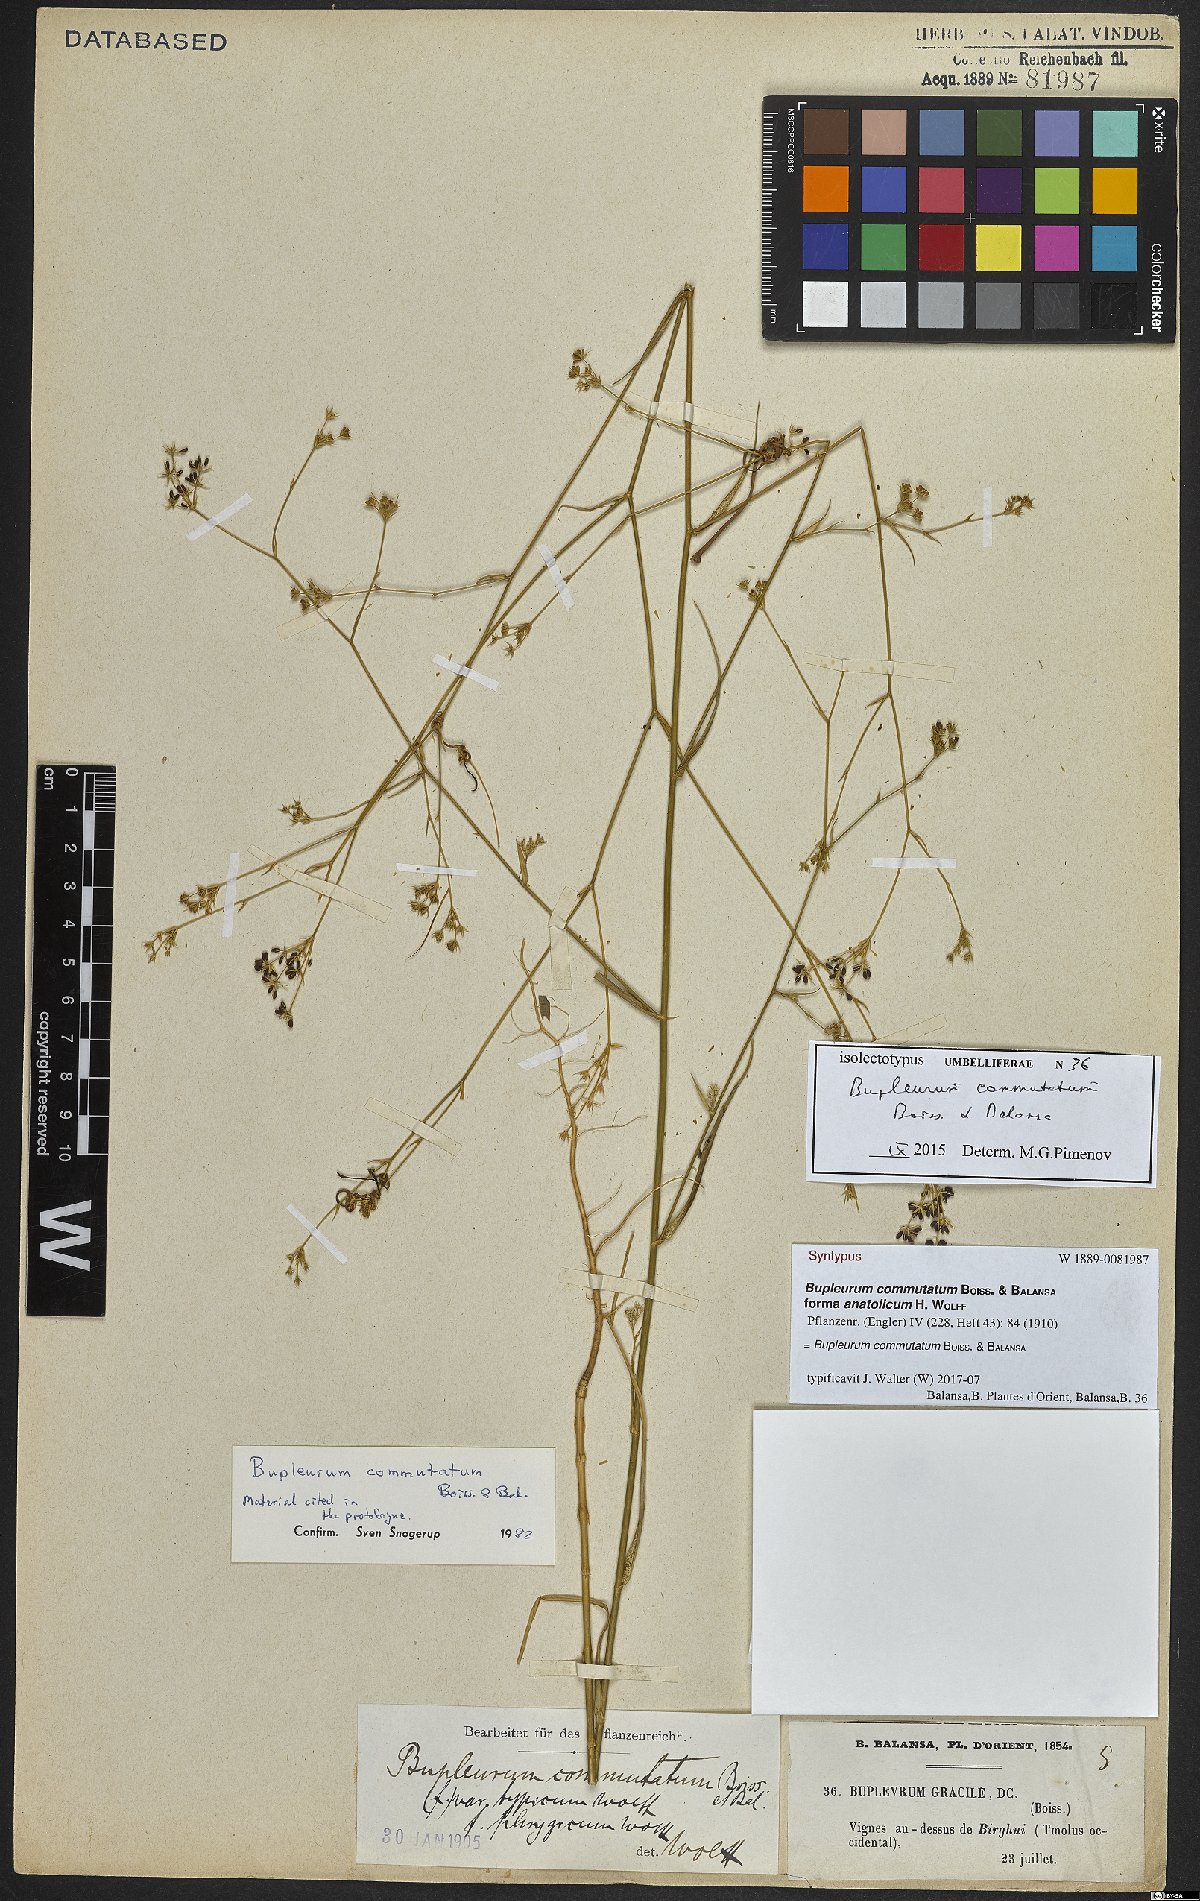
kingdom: Plantae
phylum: Tracheophyta
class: Magnoliopsida
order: Apiales
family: Apiaceae
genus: Bupleurum
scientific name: Bupleurum commutatum
